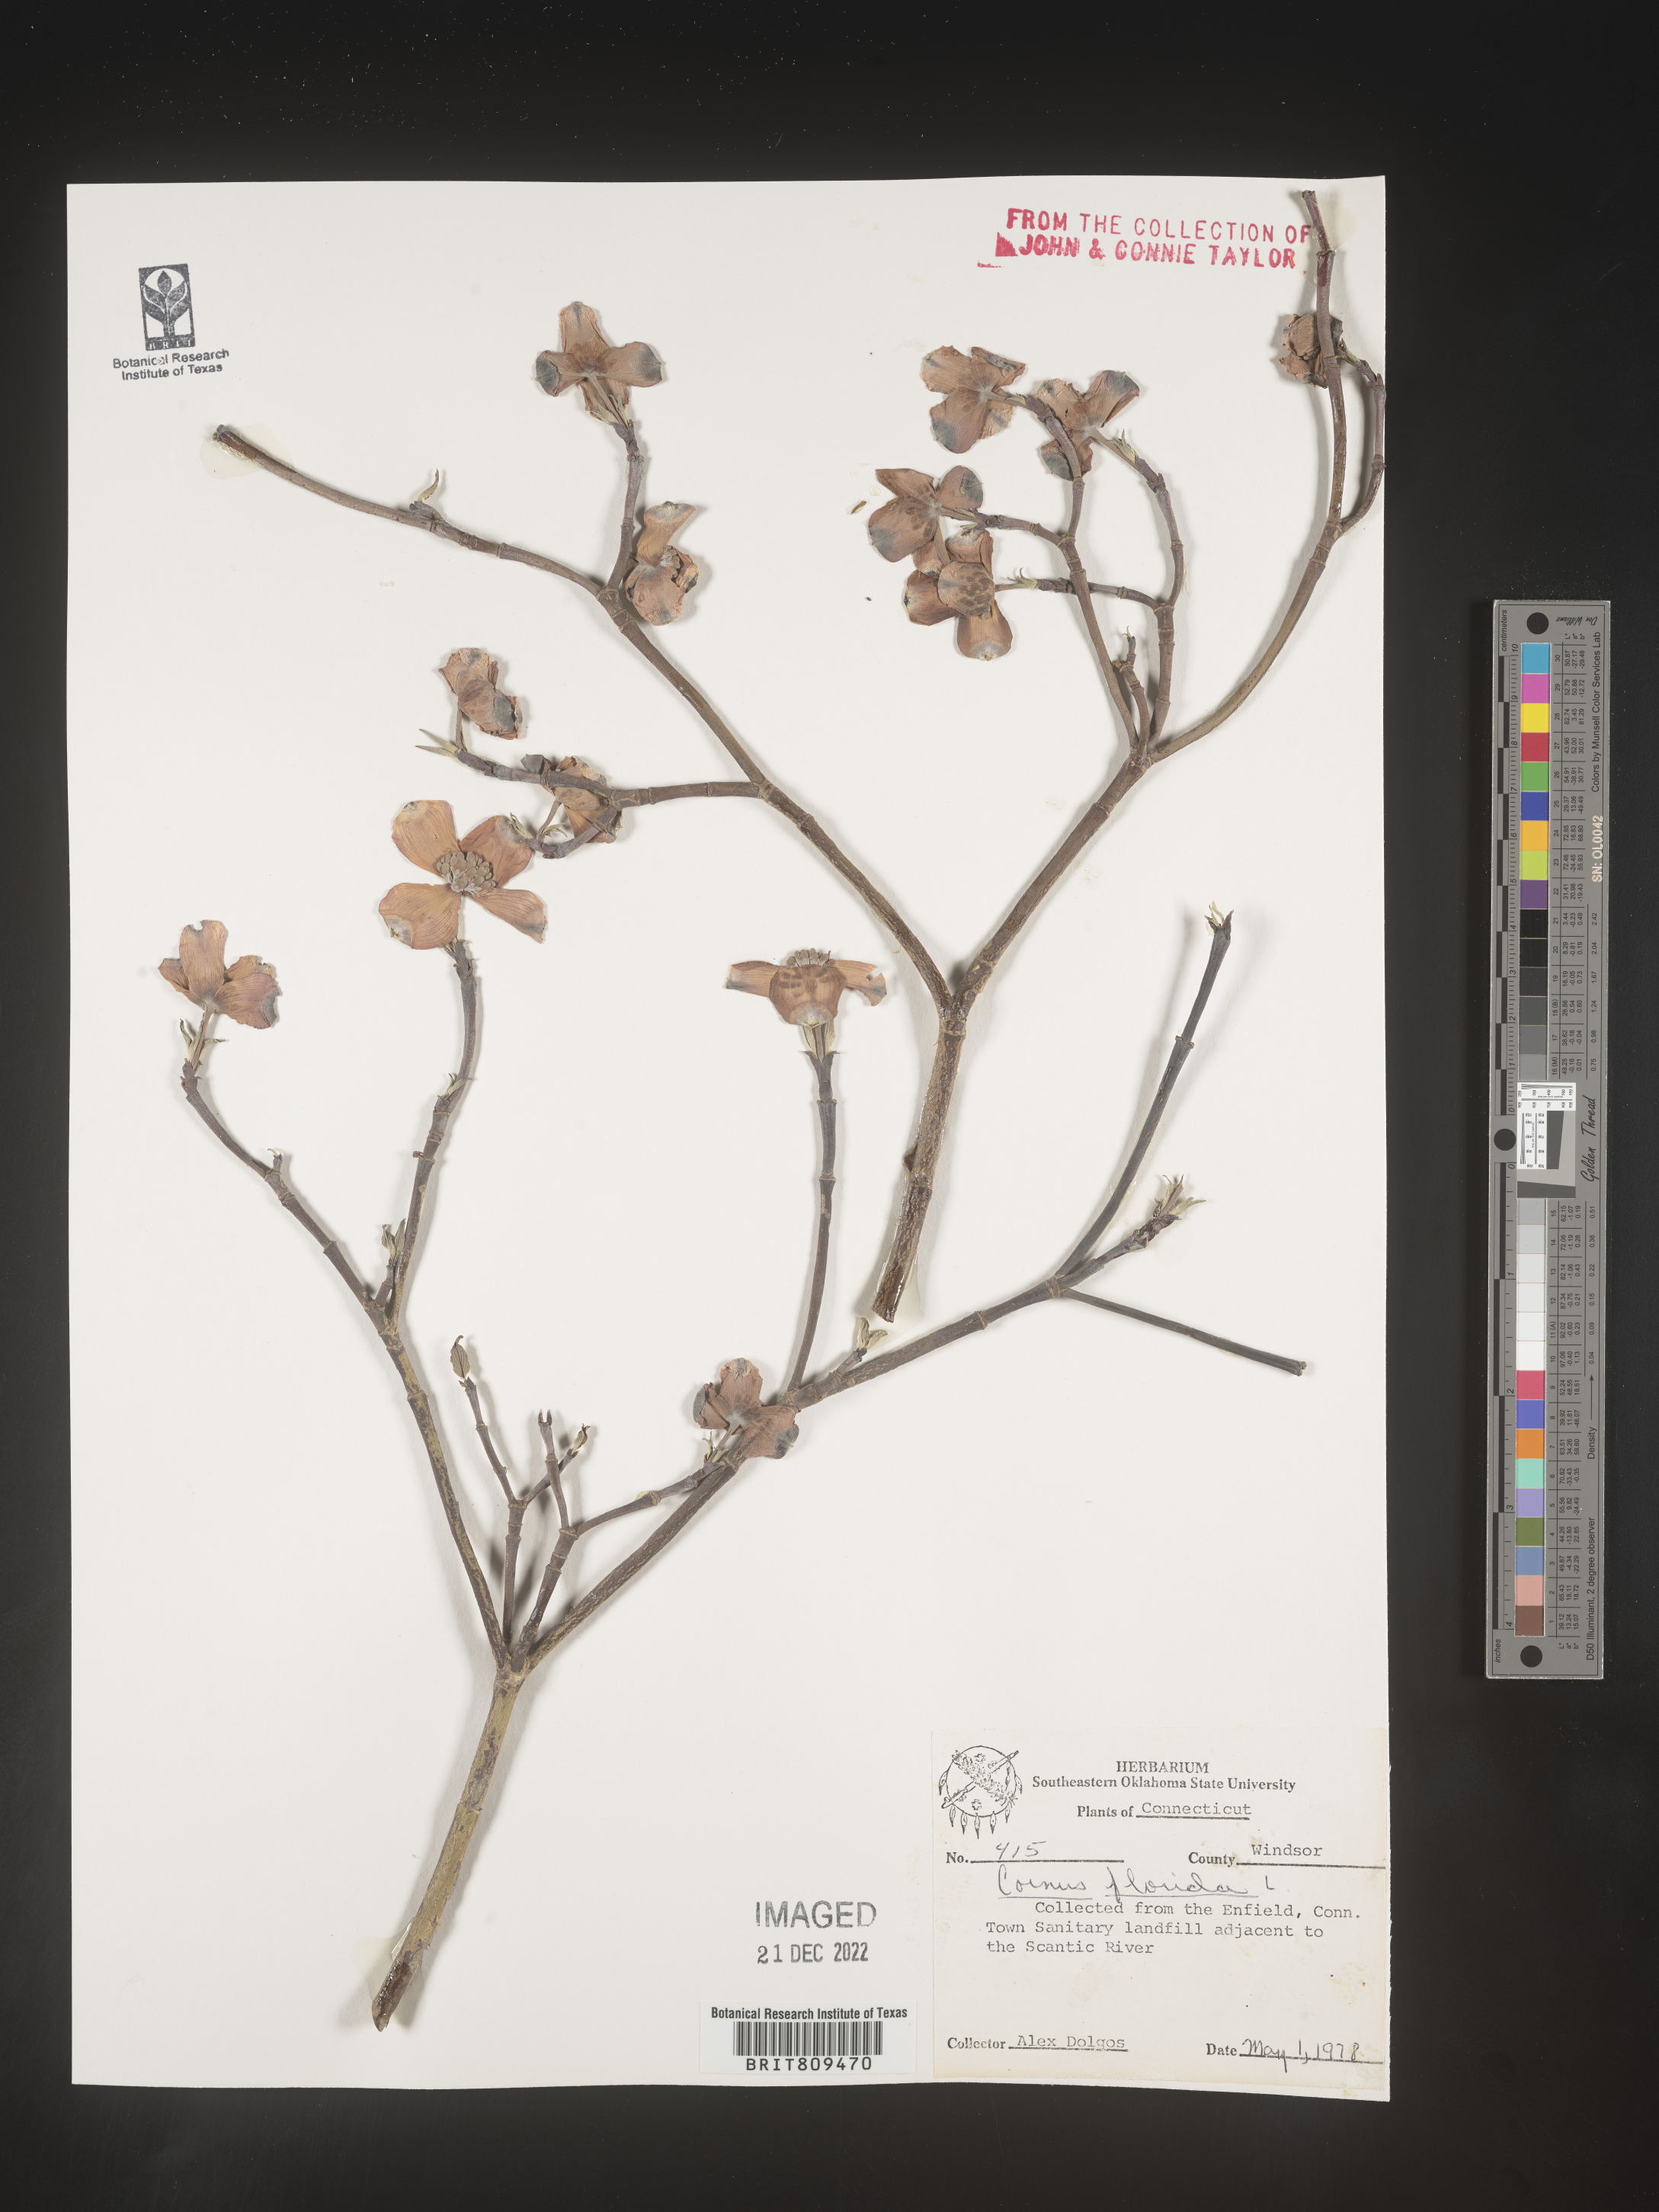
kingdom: Plantae
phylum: Tracheophyta
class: Magnoliopsida
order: Cornales
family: Cornaceae
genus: Cornus
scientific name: Cornus florida
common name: Flowering dogwood
